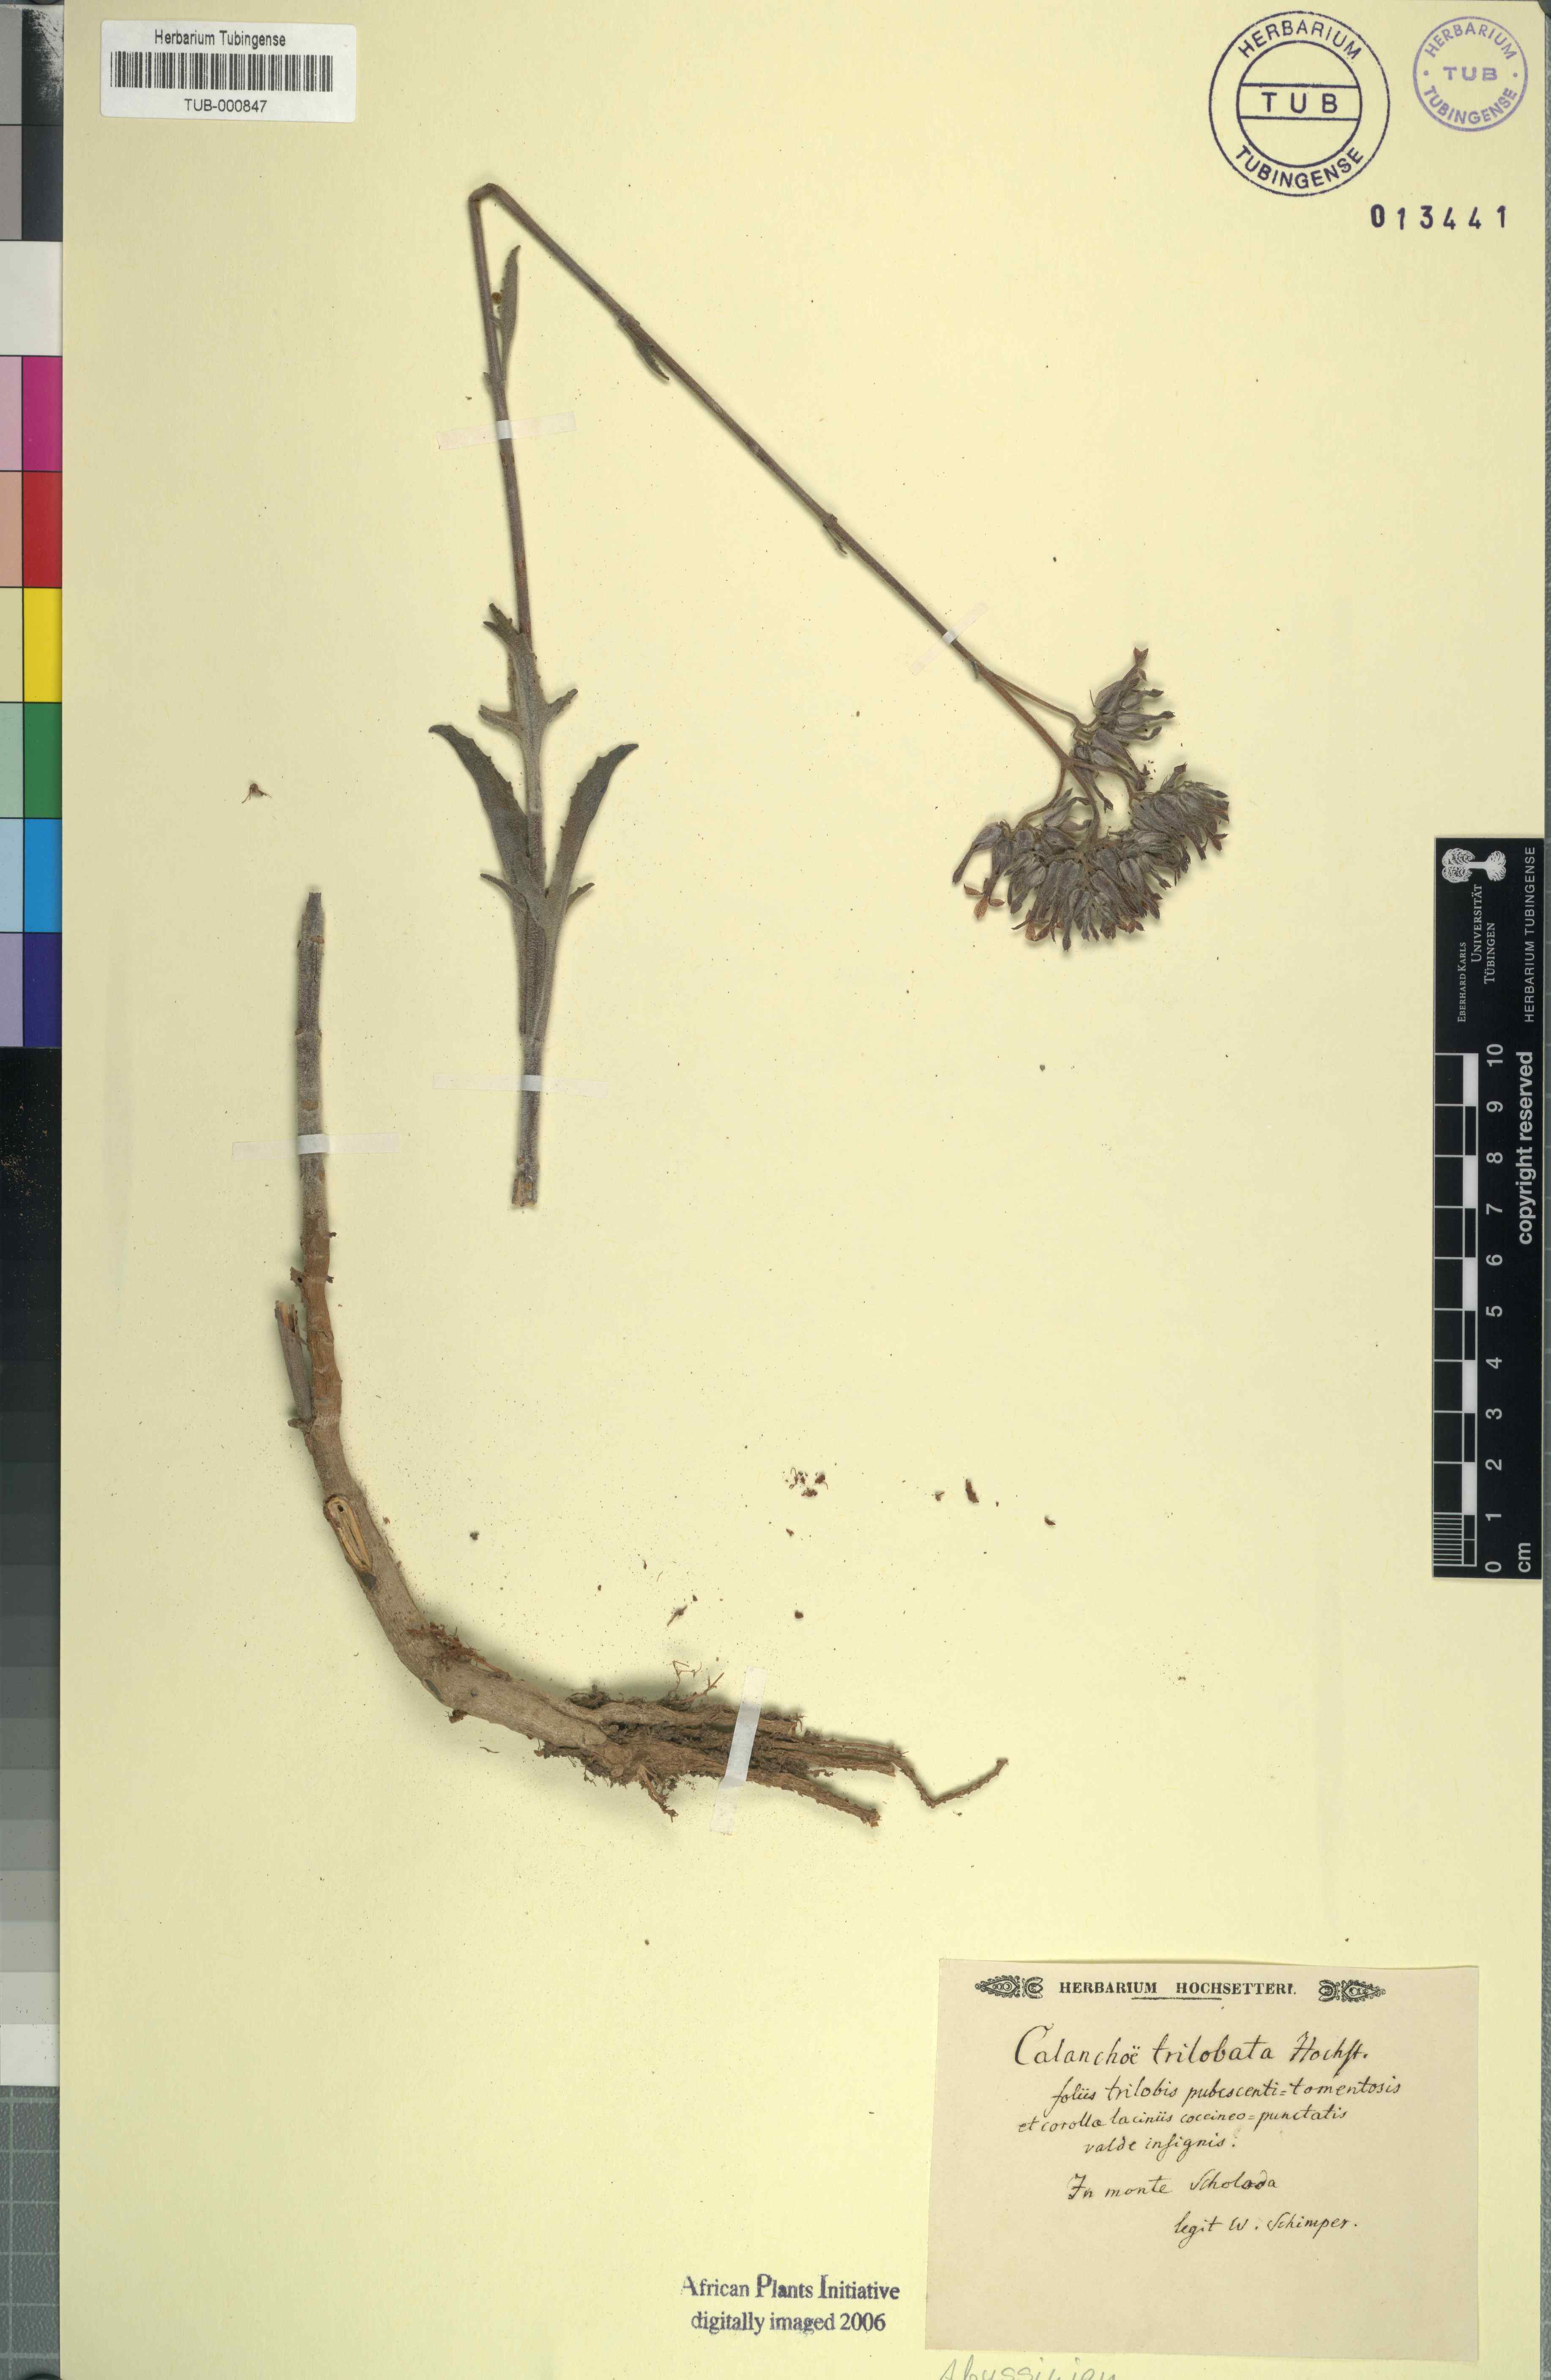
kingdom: Plantae
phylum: Tracheophyta
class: Magnoliopsida
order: Saxifragales
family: Crassulaceae
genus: Kalanchoe
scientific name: Kalanchoe
